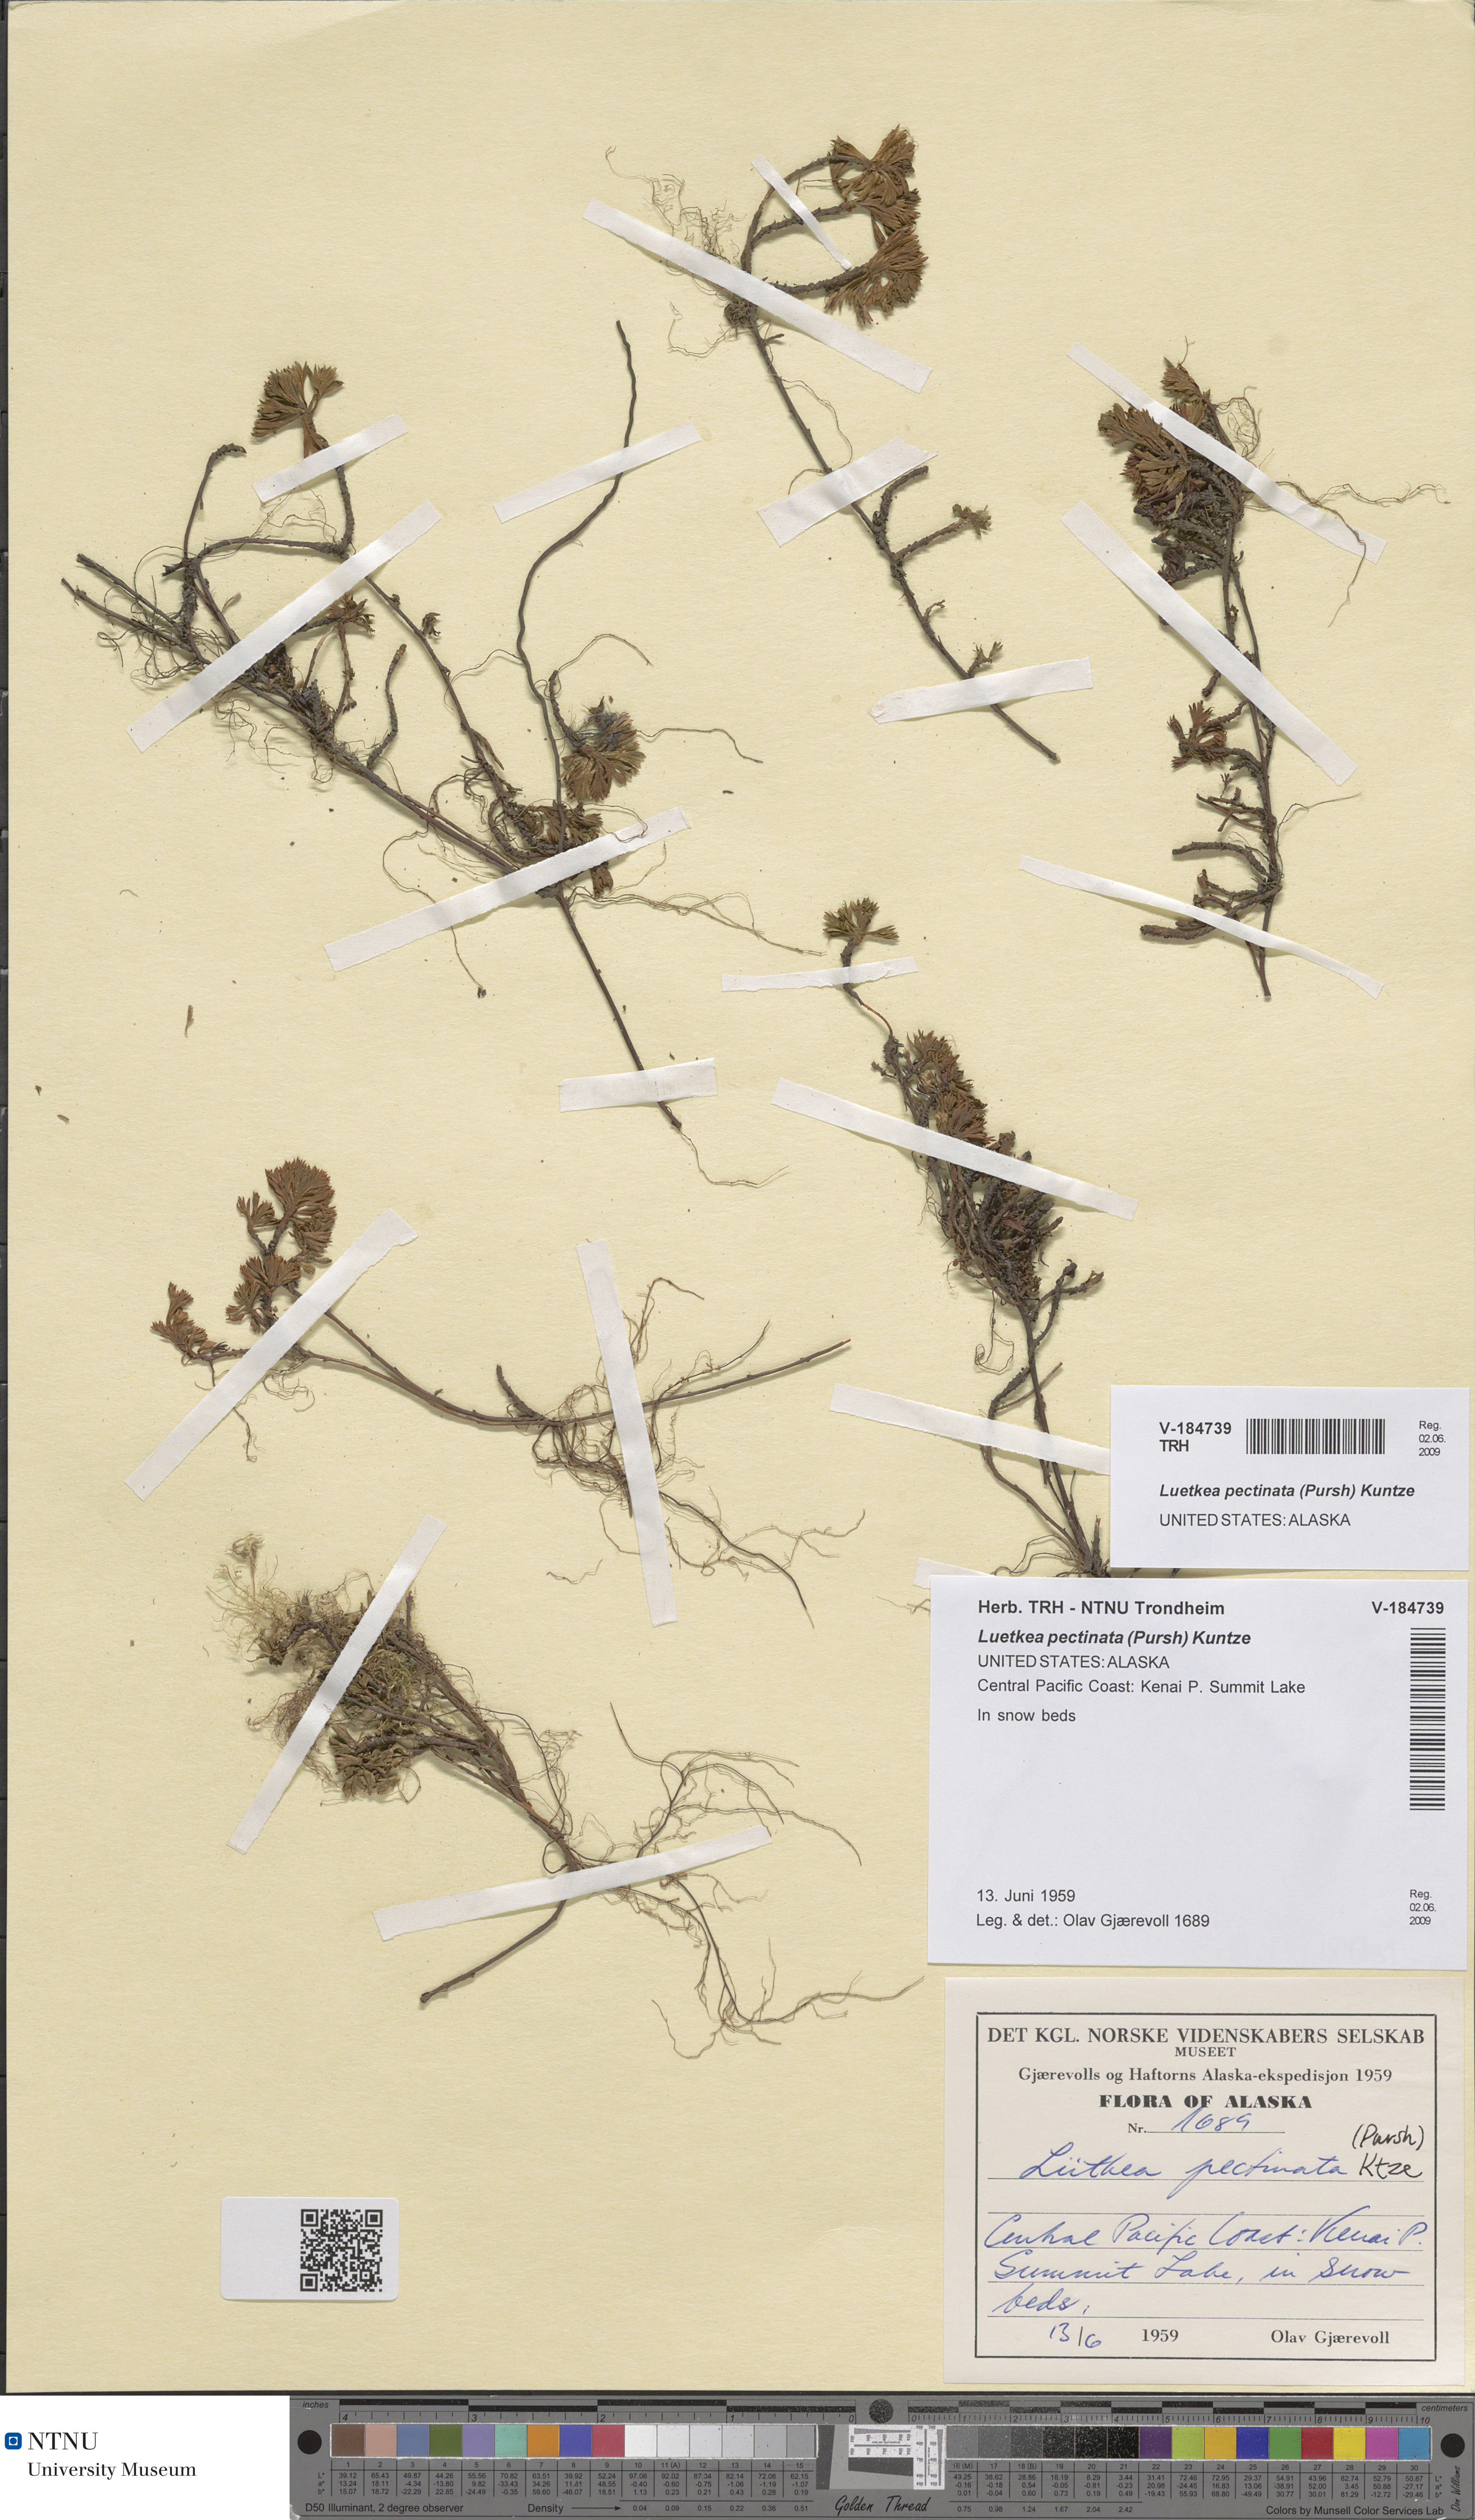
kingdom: Plantae
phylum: Tracheophyta
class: Magnoliopsida
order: Rosales
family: Rosaceae
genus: Luetkea
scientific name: Luetkea pectinata
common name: Partridgefoot
